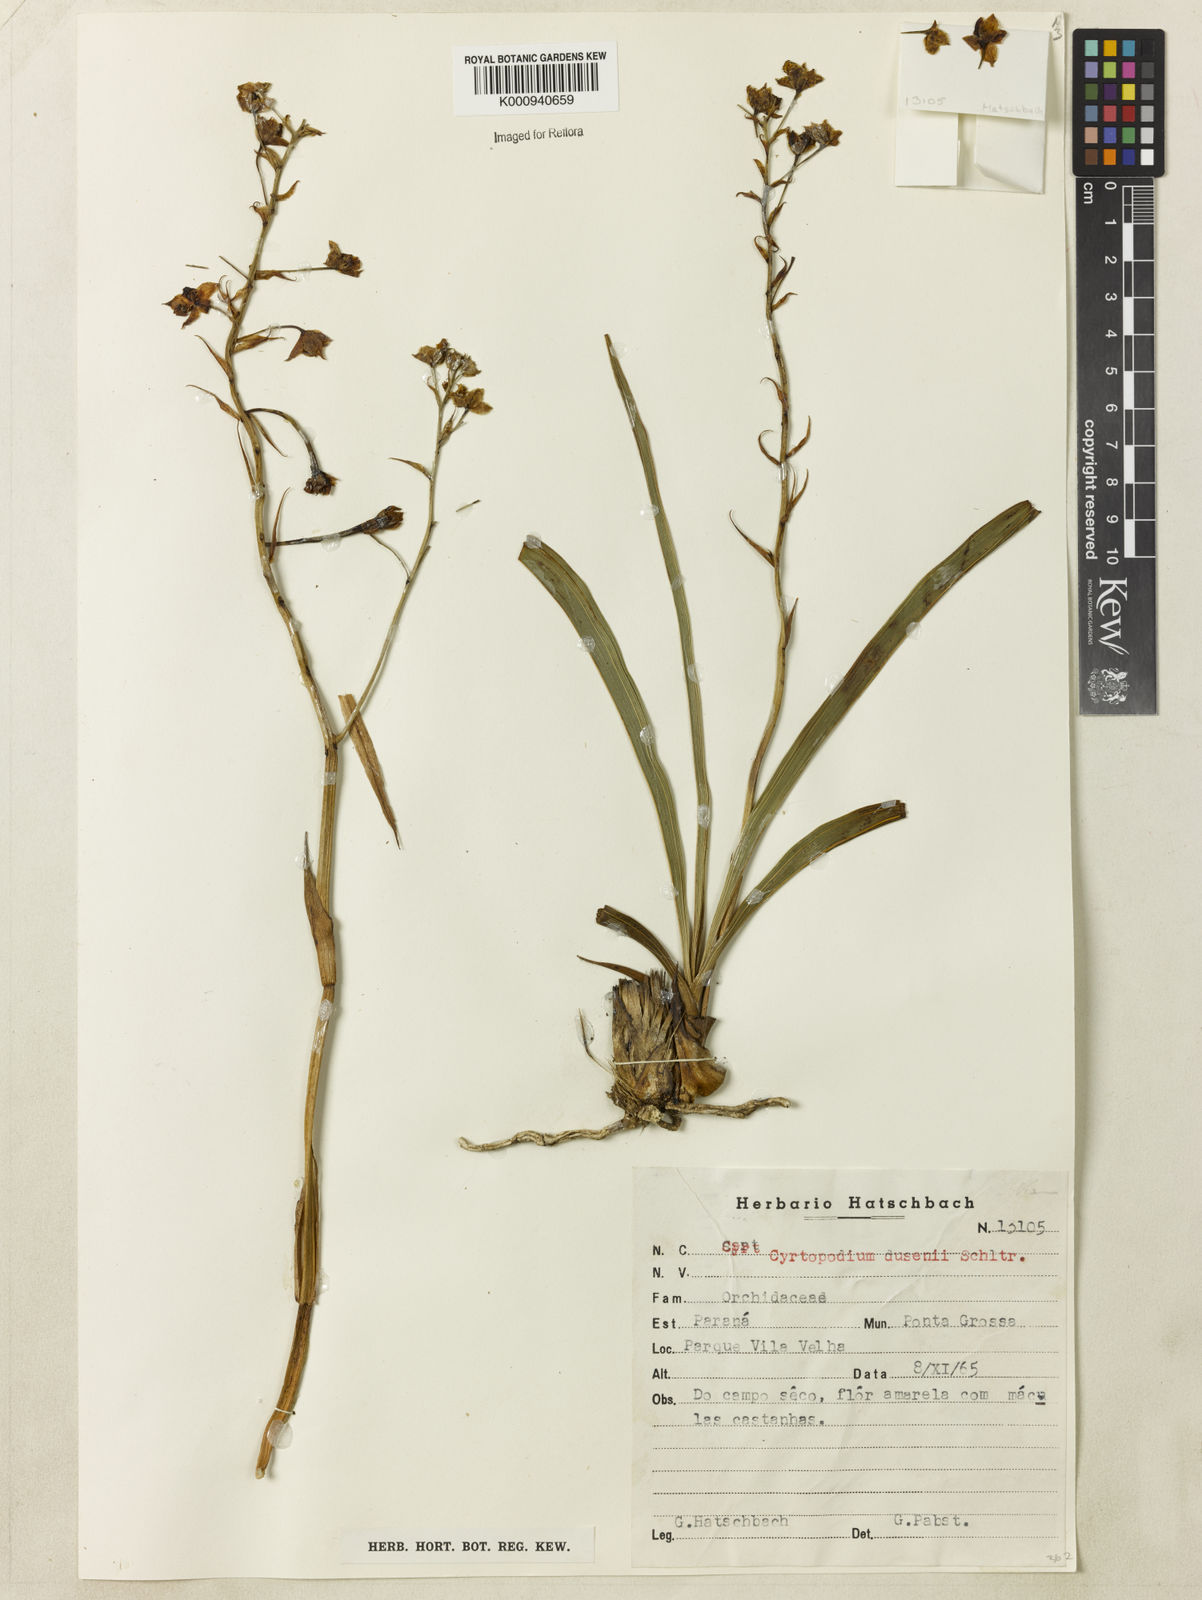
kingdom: Plantae
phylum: Tracheophyta
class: Liliopsida
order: Asparagales
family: Orchidaceae
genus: Cyrtopodium
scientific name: Cyrtopodium dusenii
